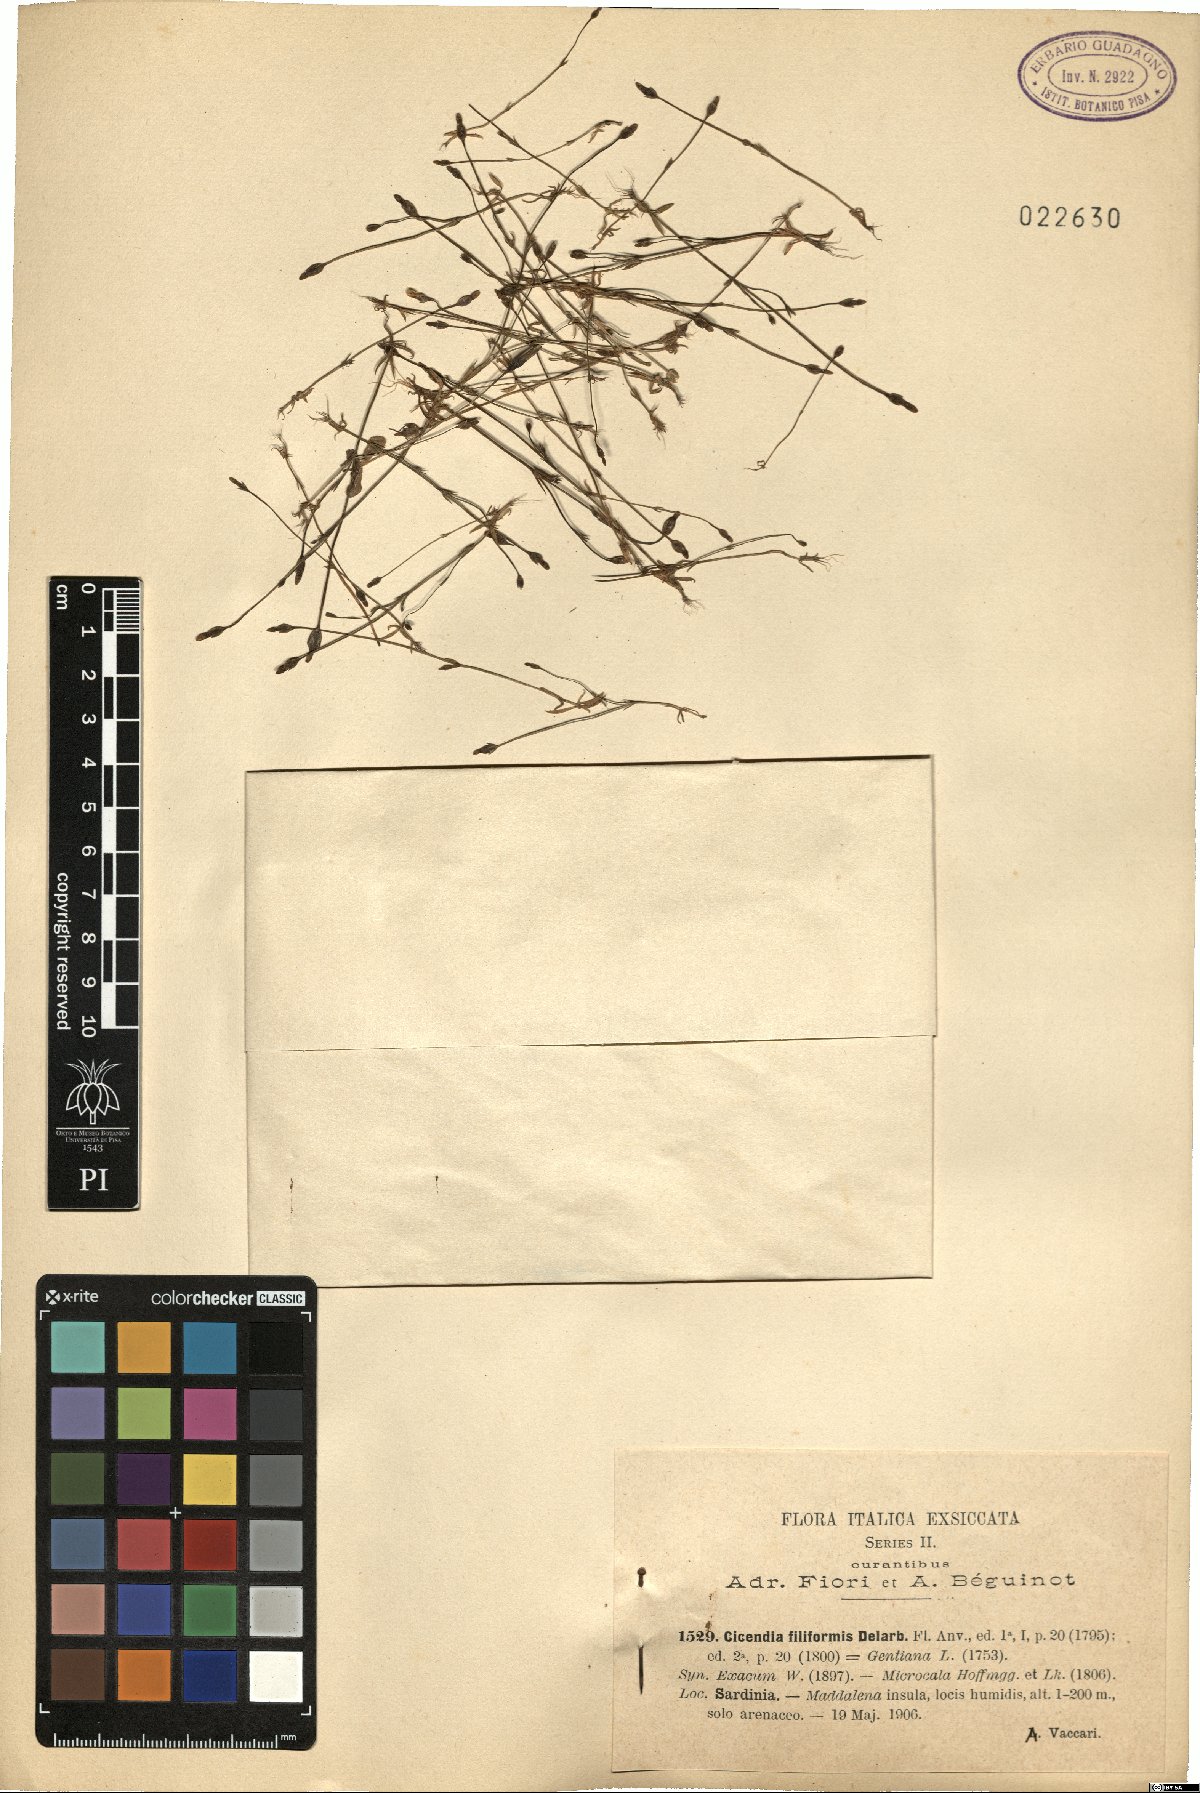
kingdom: Plantae
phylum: Tracheophyta
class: Magnoliopsida
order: Gentianales
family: Gentianaceae
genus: Cicendia
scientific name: Cicendia filiformis
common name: Yellow centaury
